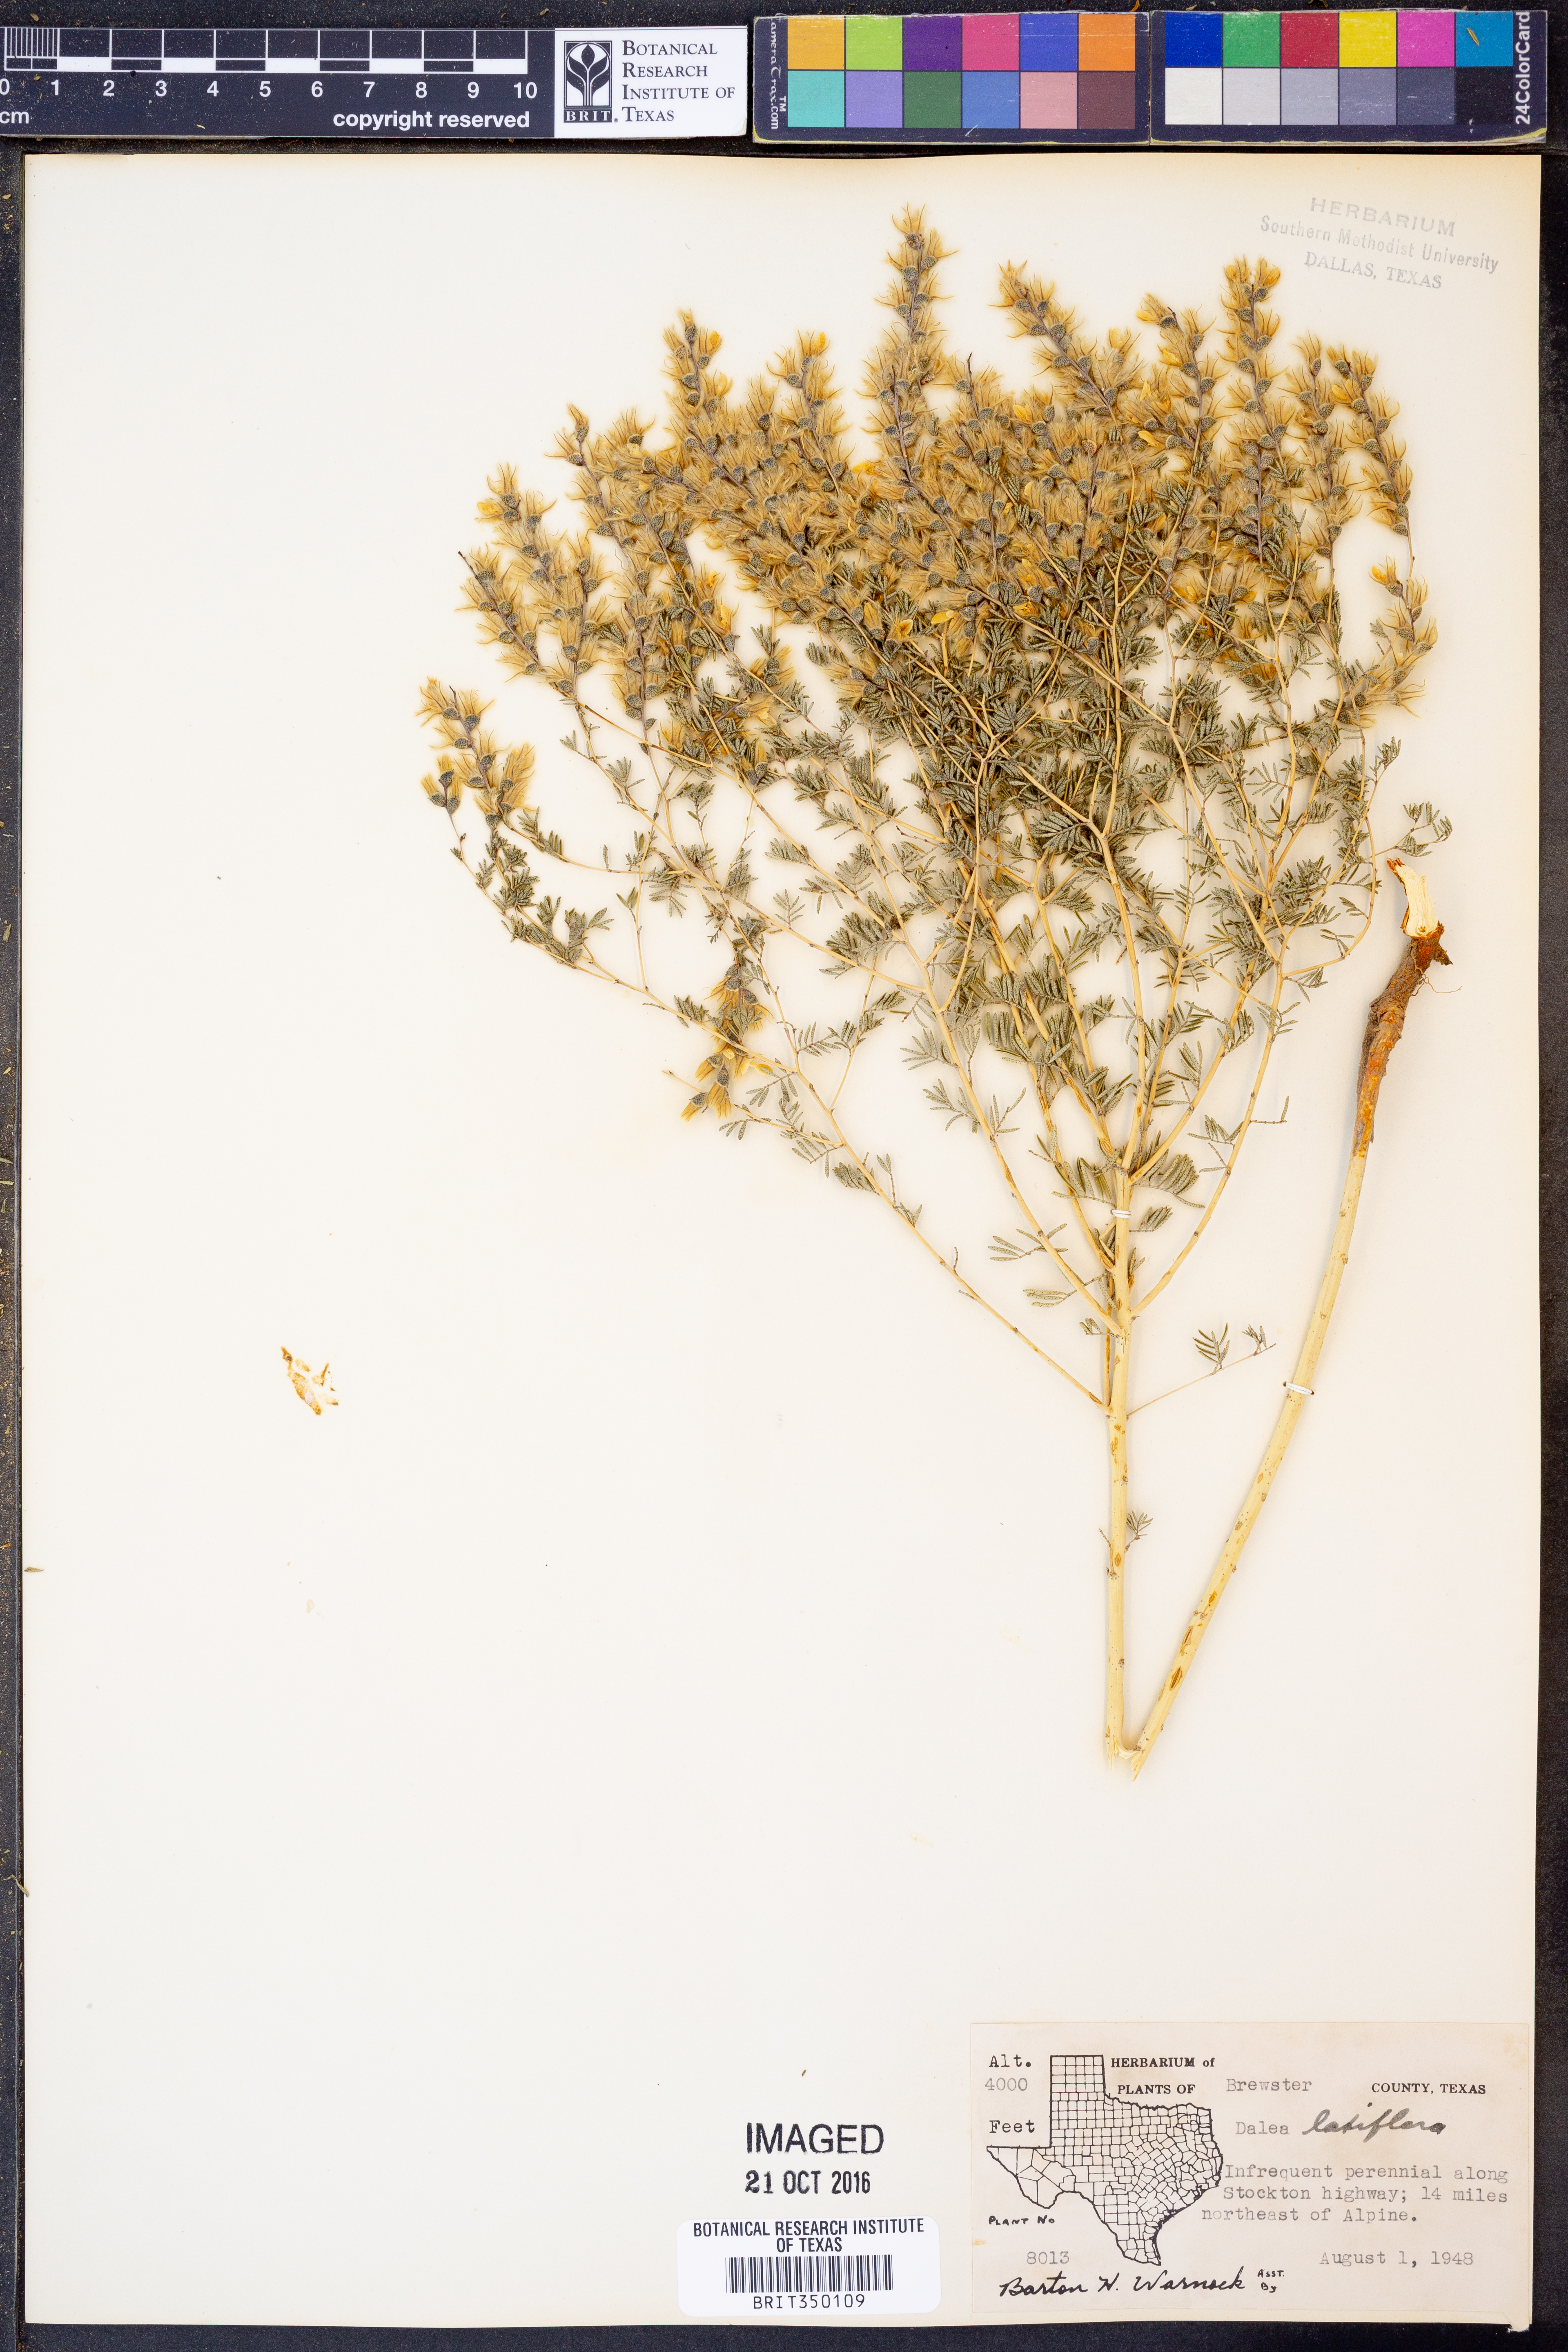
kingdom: Plantae
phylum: Tracheophyta
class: Magnoliopsida
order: Fabales
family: Fabaceae
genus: Dalea
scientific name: Dalea hegewischiana
